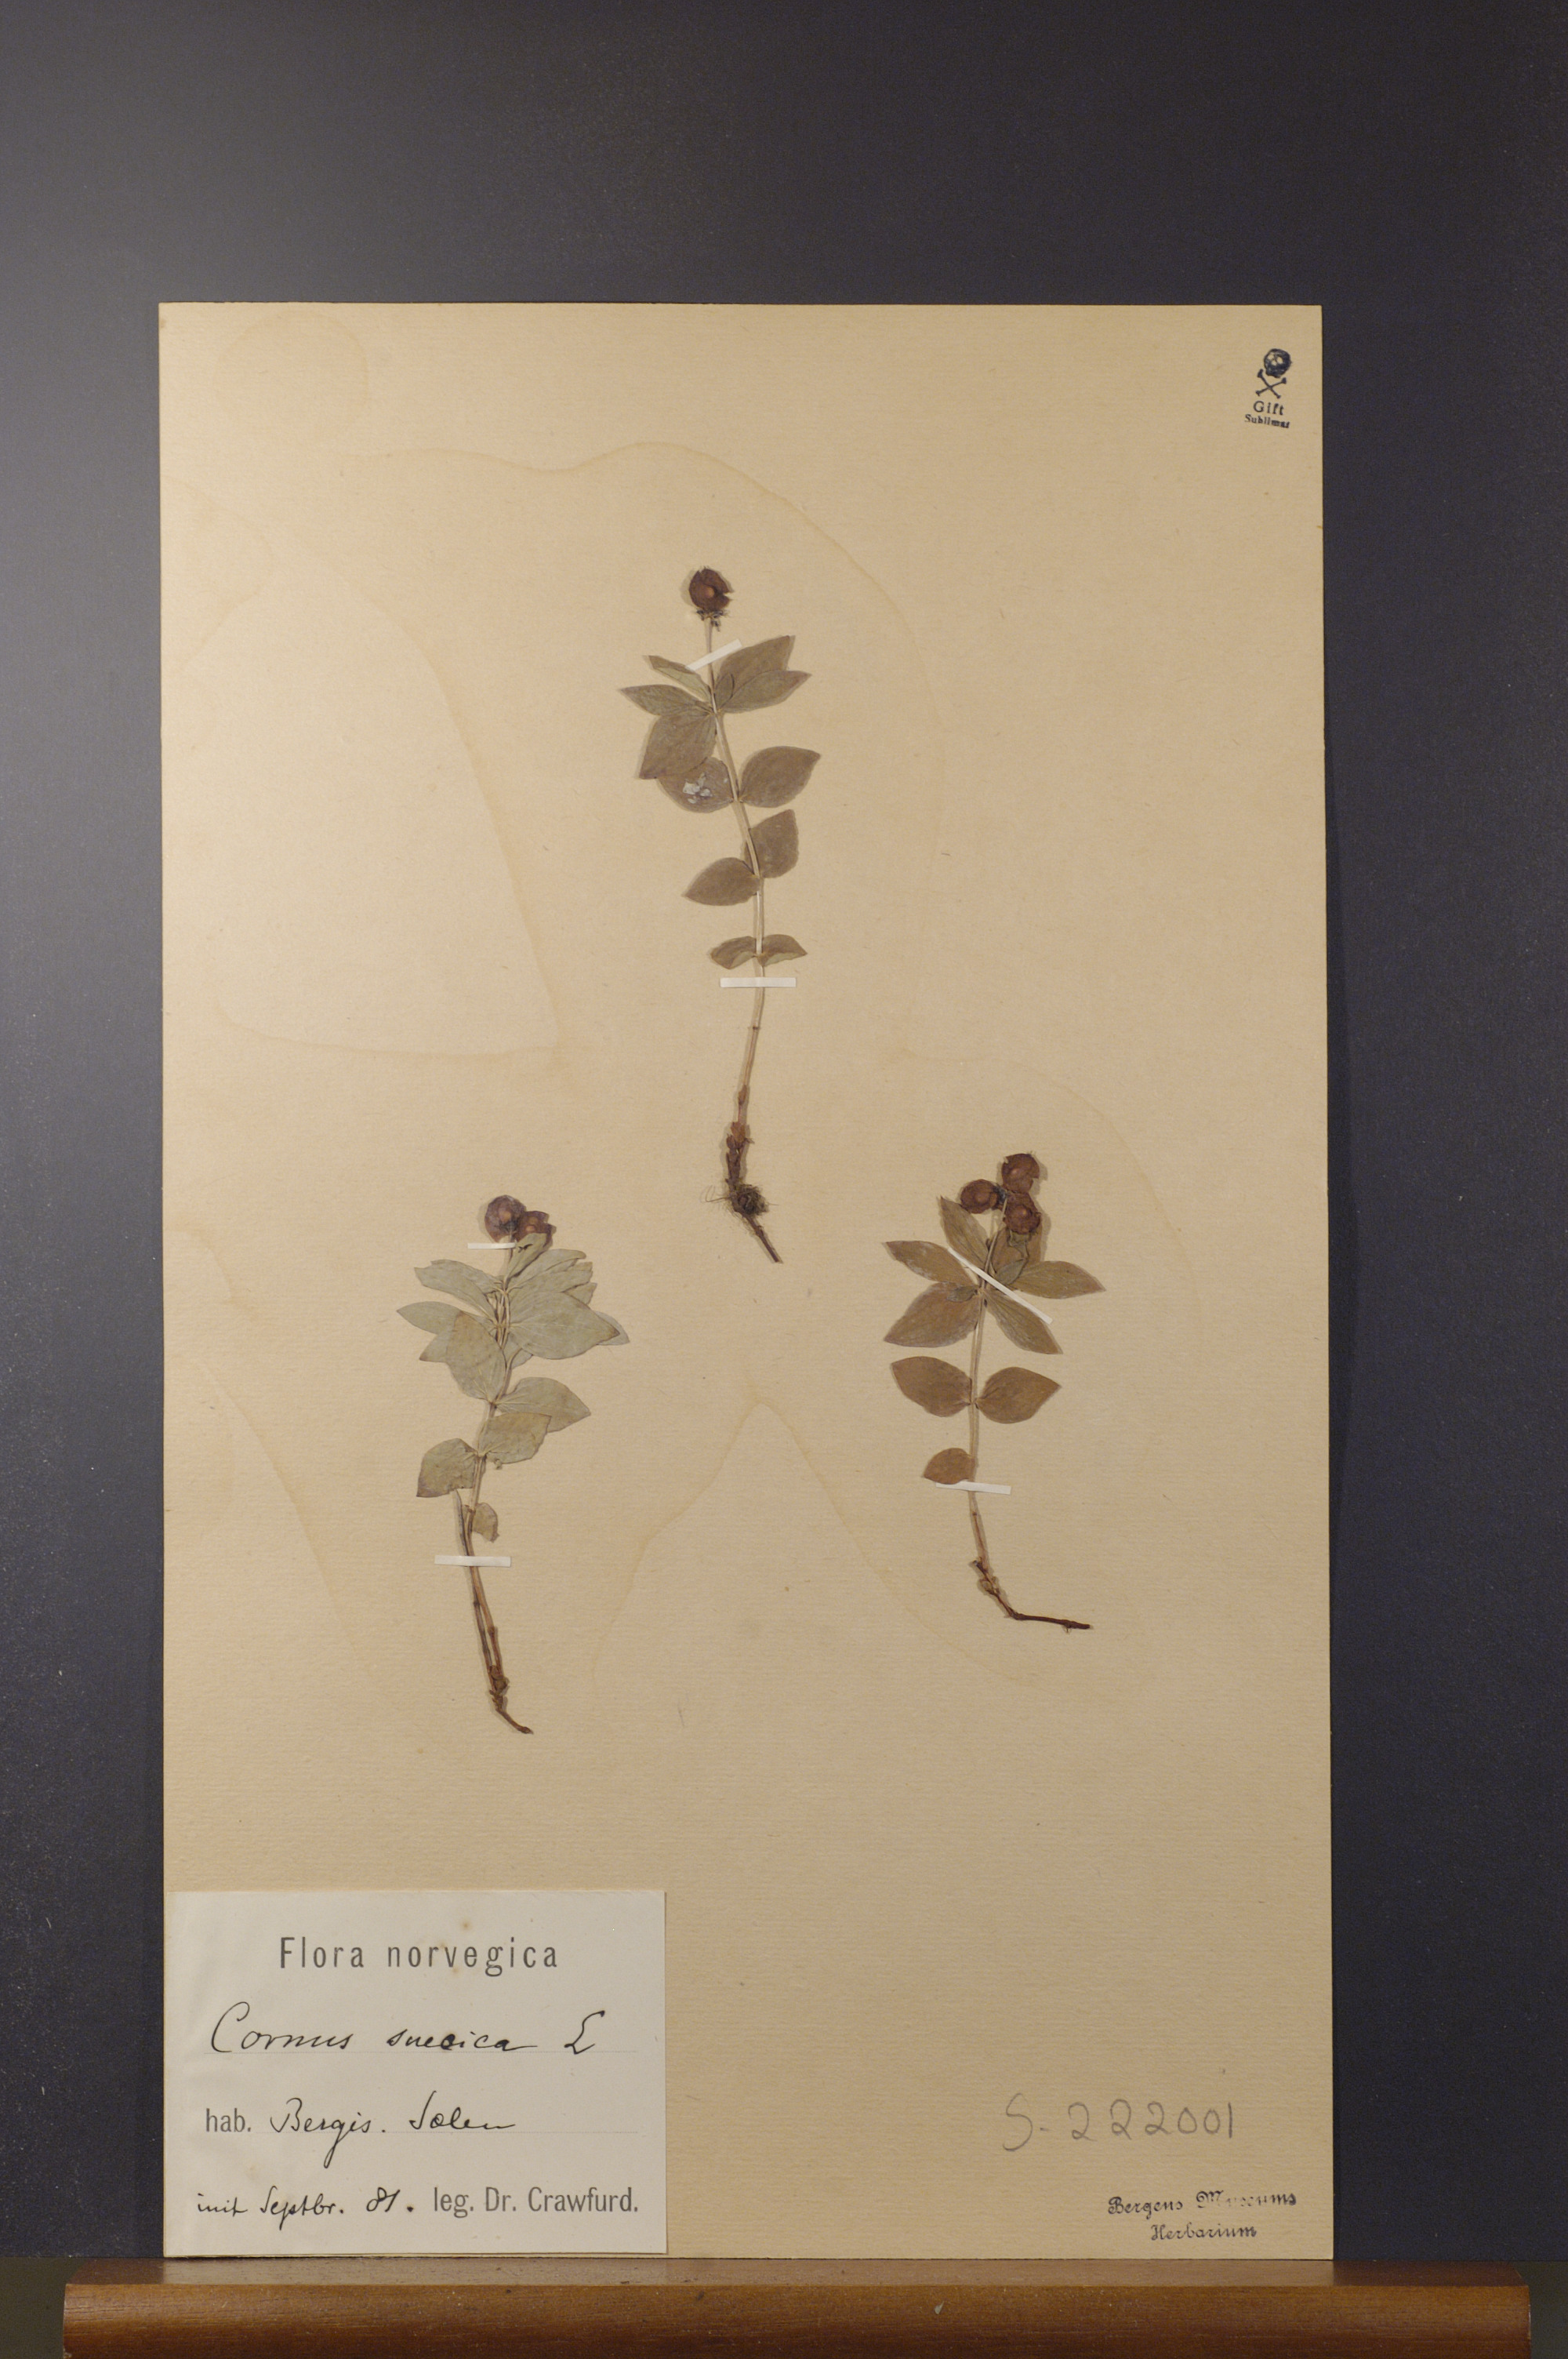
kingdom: Plantae
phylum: Tracheophyta
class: Magnoliopsida
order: Cornales
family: Cornaceae
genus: Cornus
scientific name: Cornus suecica
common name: Dwarf cornel
